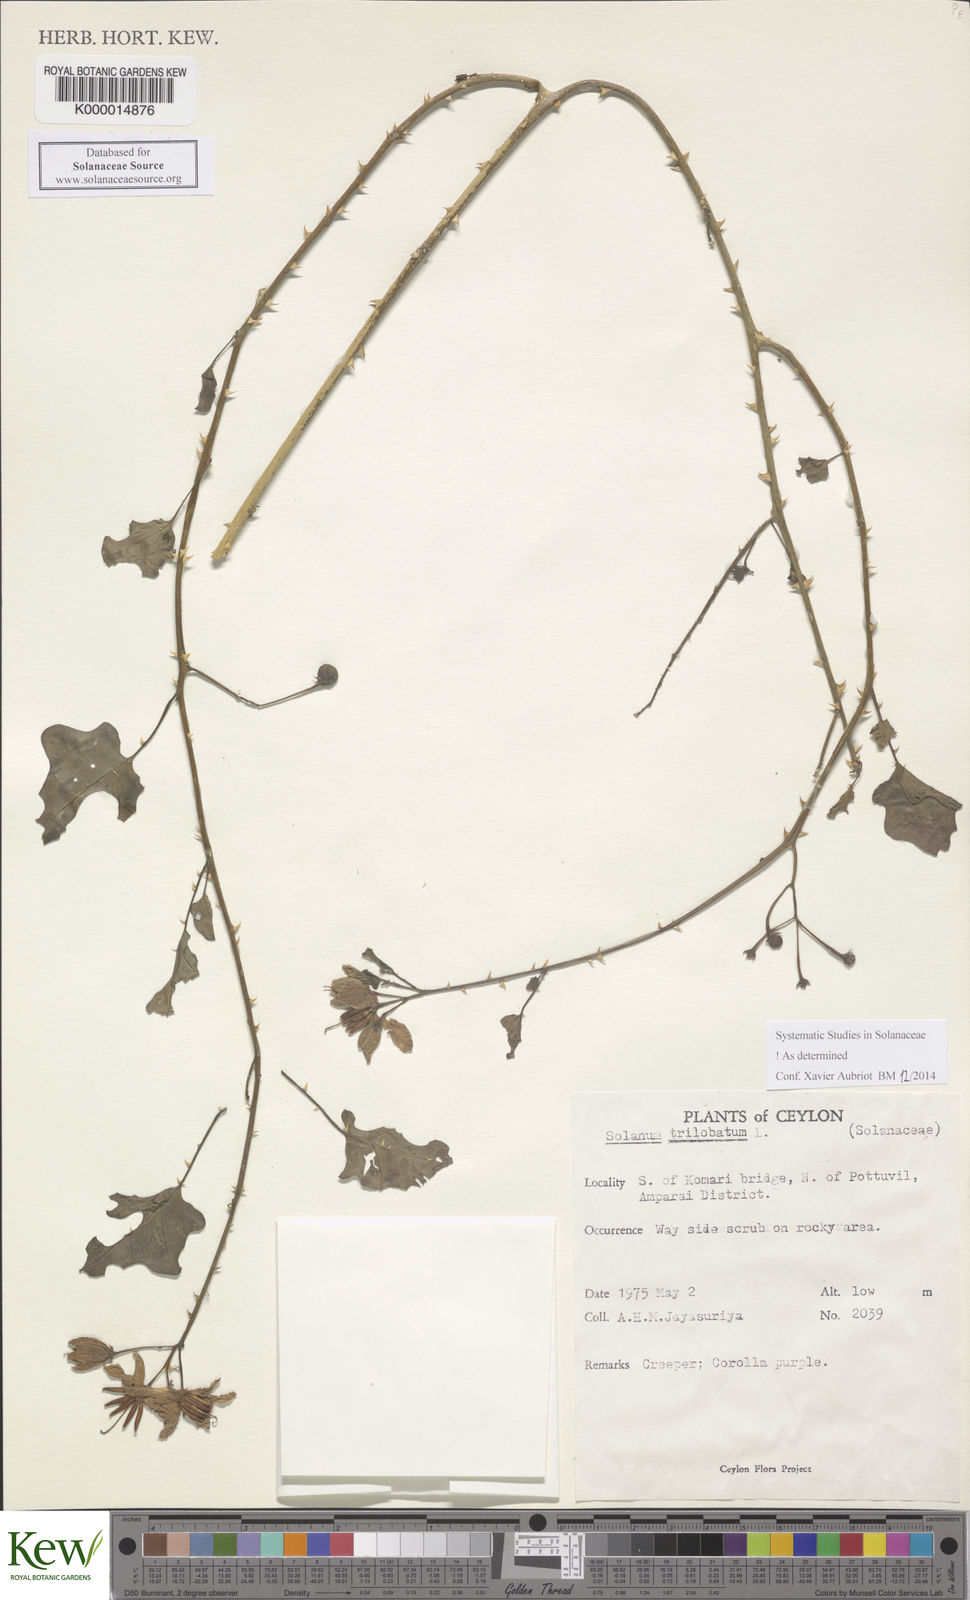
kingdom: Plantae
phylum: Tracheophyta
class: Magnoliopsida
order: Solanales
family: Solanaceae
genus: Solanum
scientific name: Solanum trilobatum
